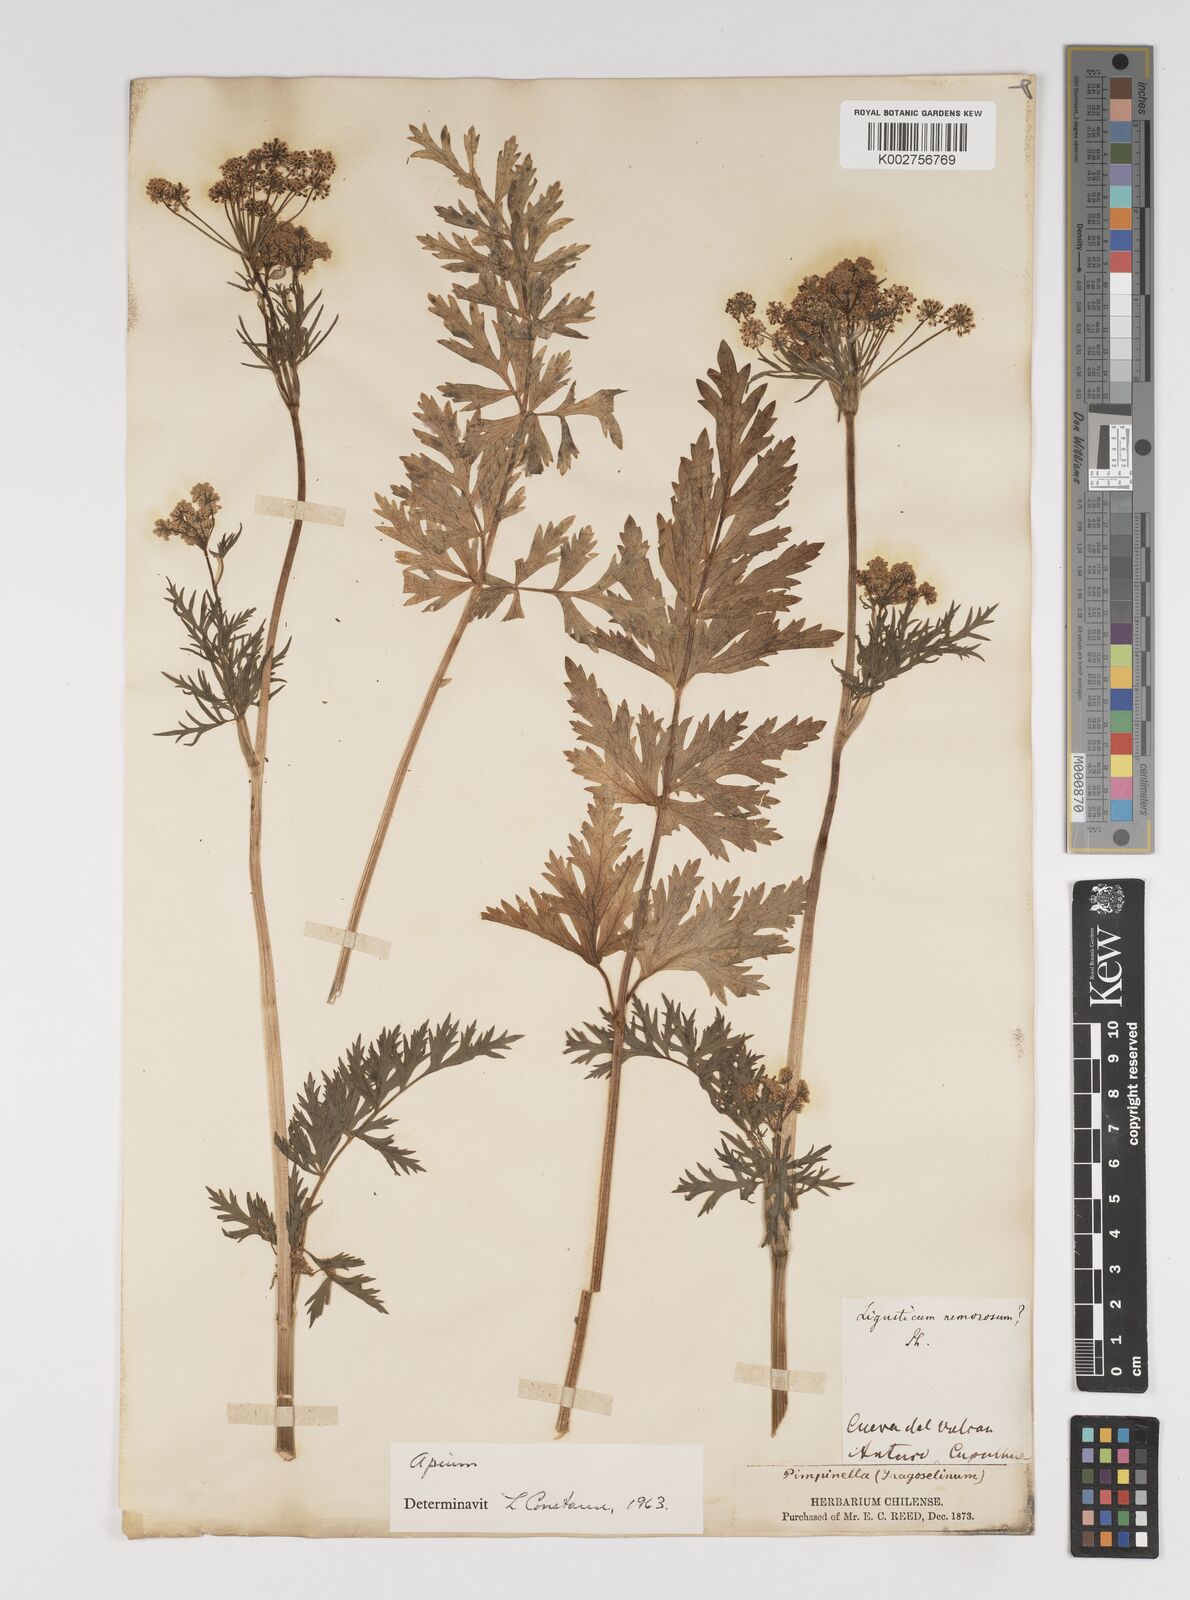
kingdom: Plantae
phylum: Tracheophyta
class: Magnoliopsida
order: Apiales
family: Apiaceae
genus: Apium
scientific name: Apium panul
